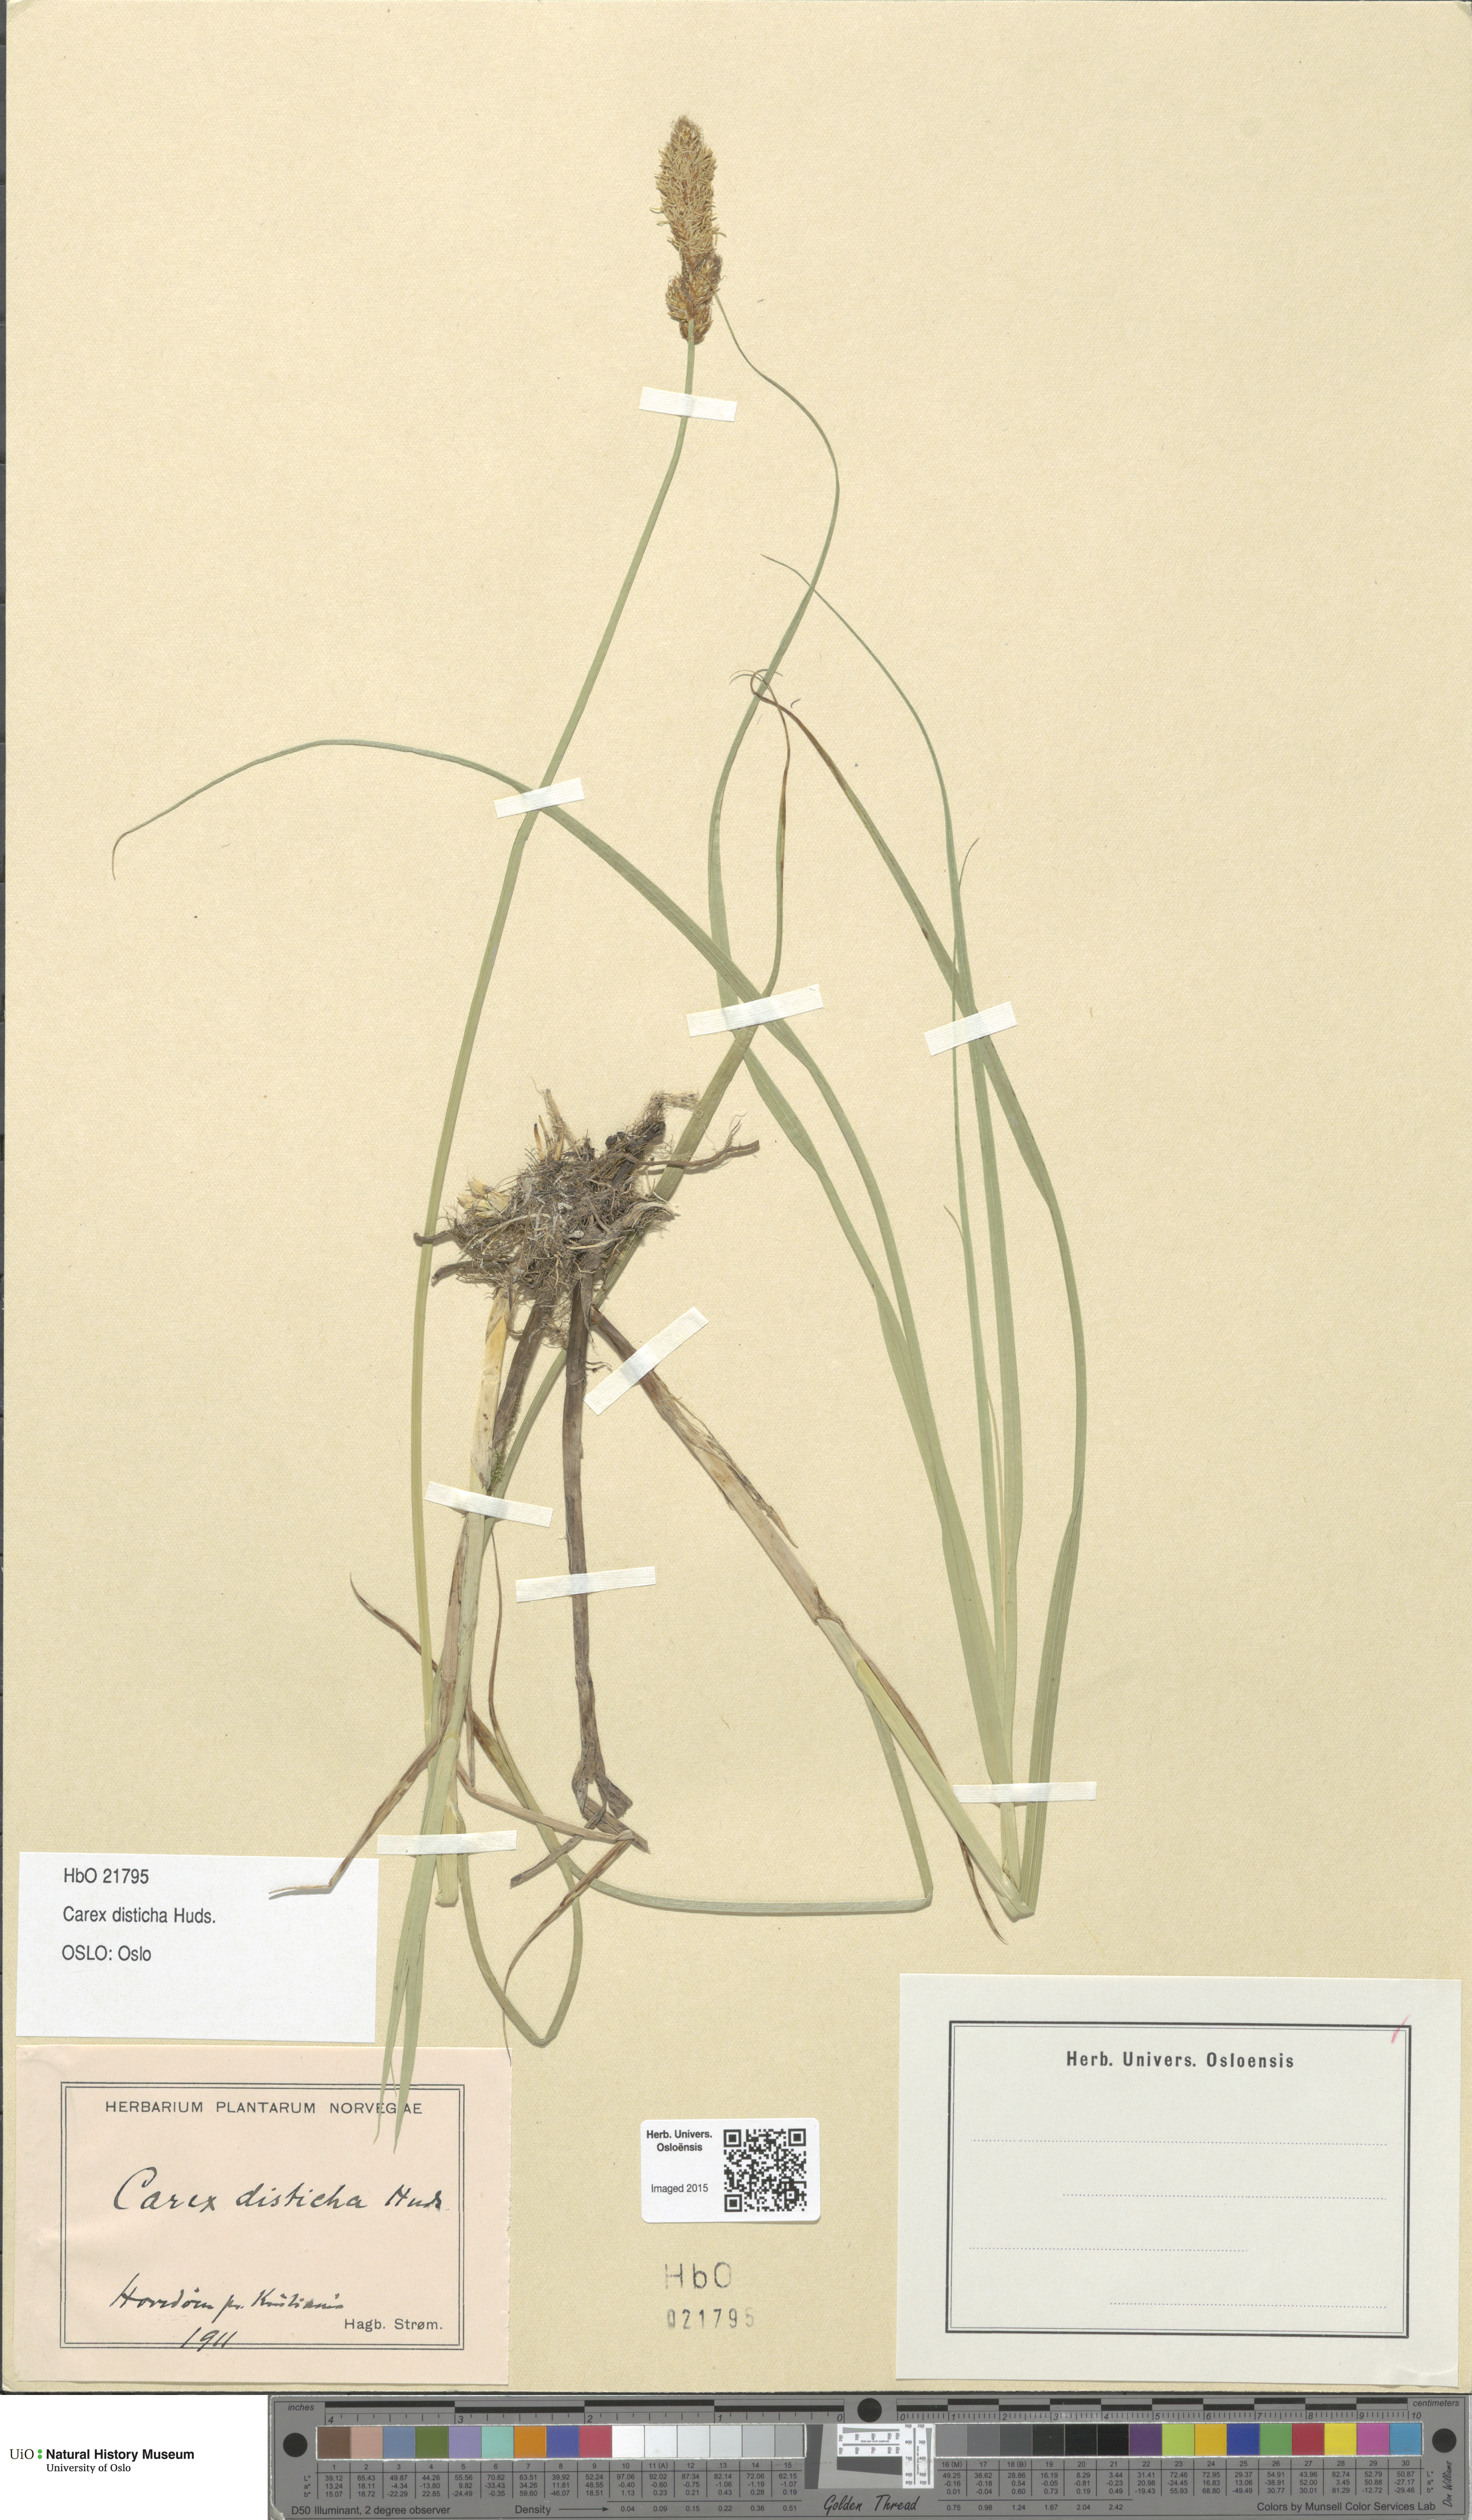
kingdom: Plantae
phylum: Tracheophyta
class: Liliopsida
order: Poales
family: Cyperaceae
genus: Carex
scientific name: Carex disticha
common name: Brown sedge
